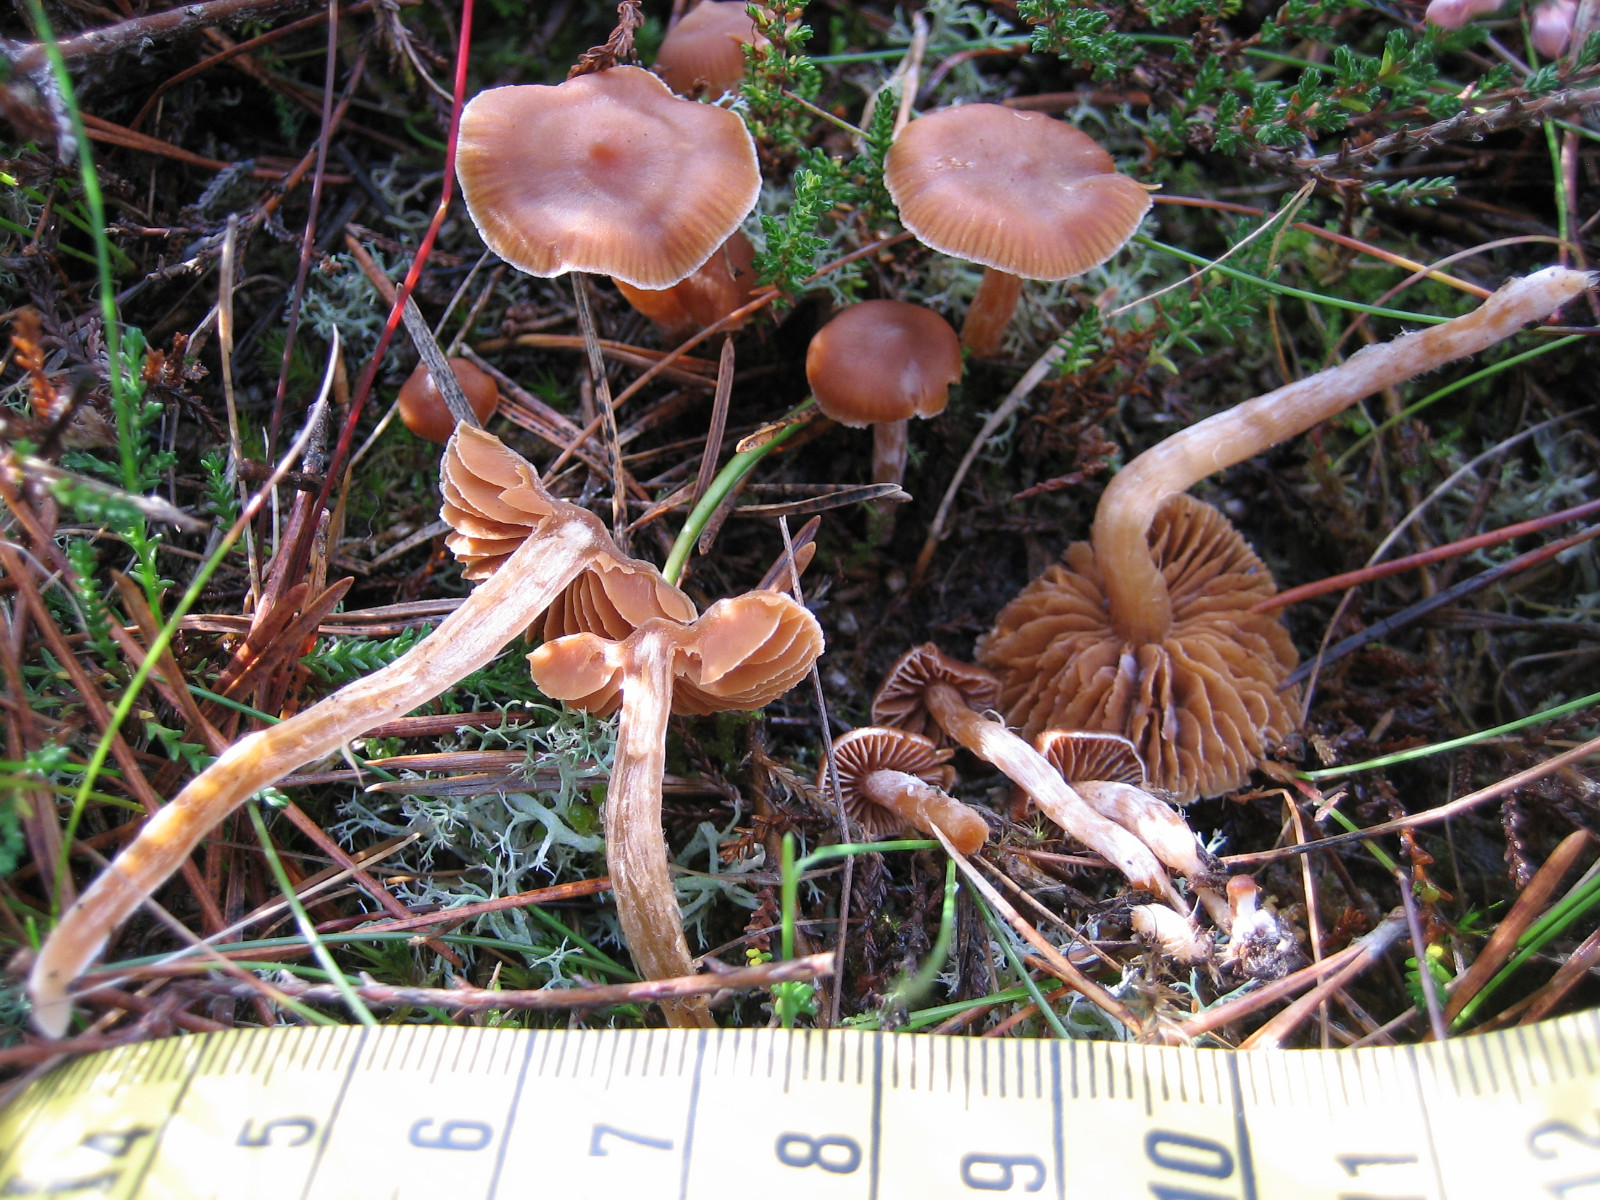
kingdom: Fungi
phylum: Basidiomycota
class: Agaricomycetes
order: Agaricales
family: Cortinariaceae
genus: Cortinarius
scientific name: Cortinarius
